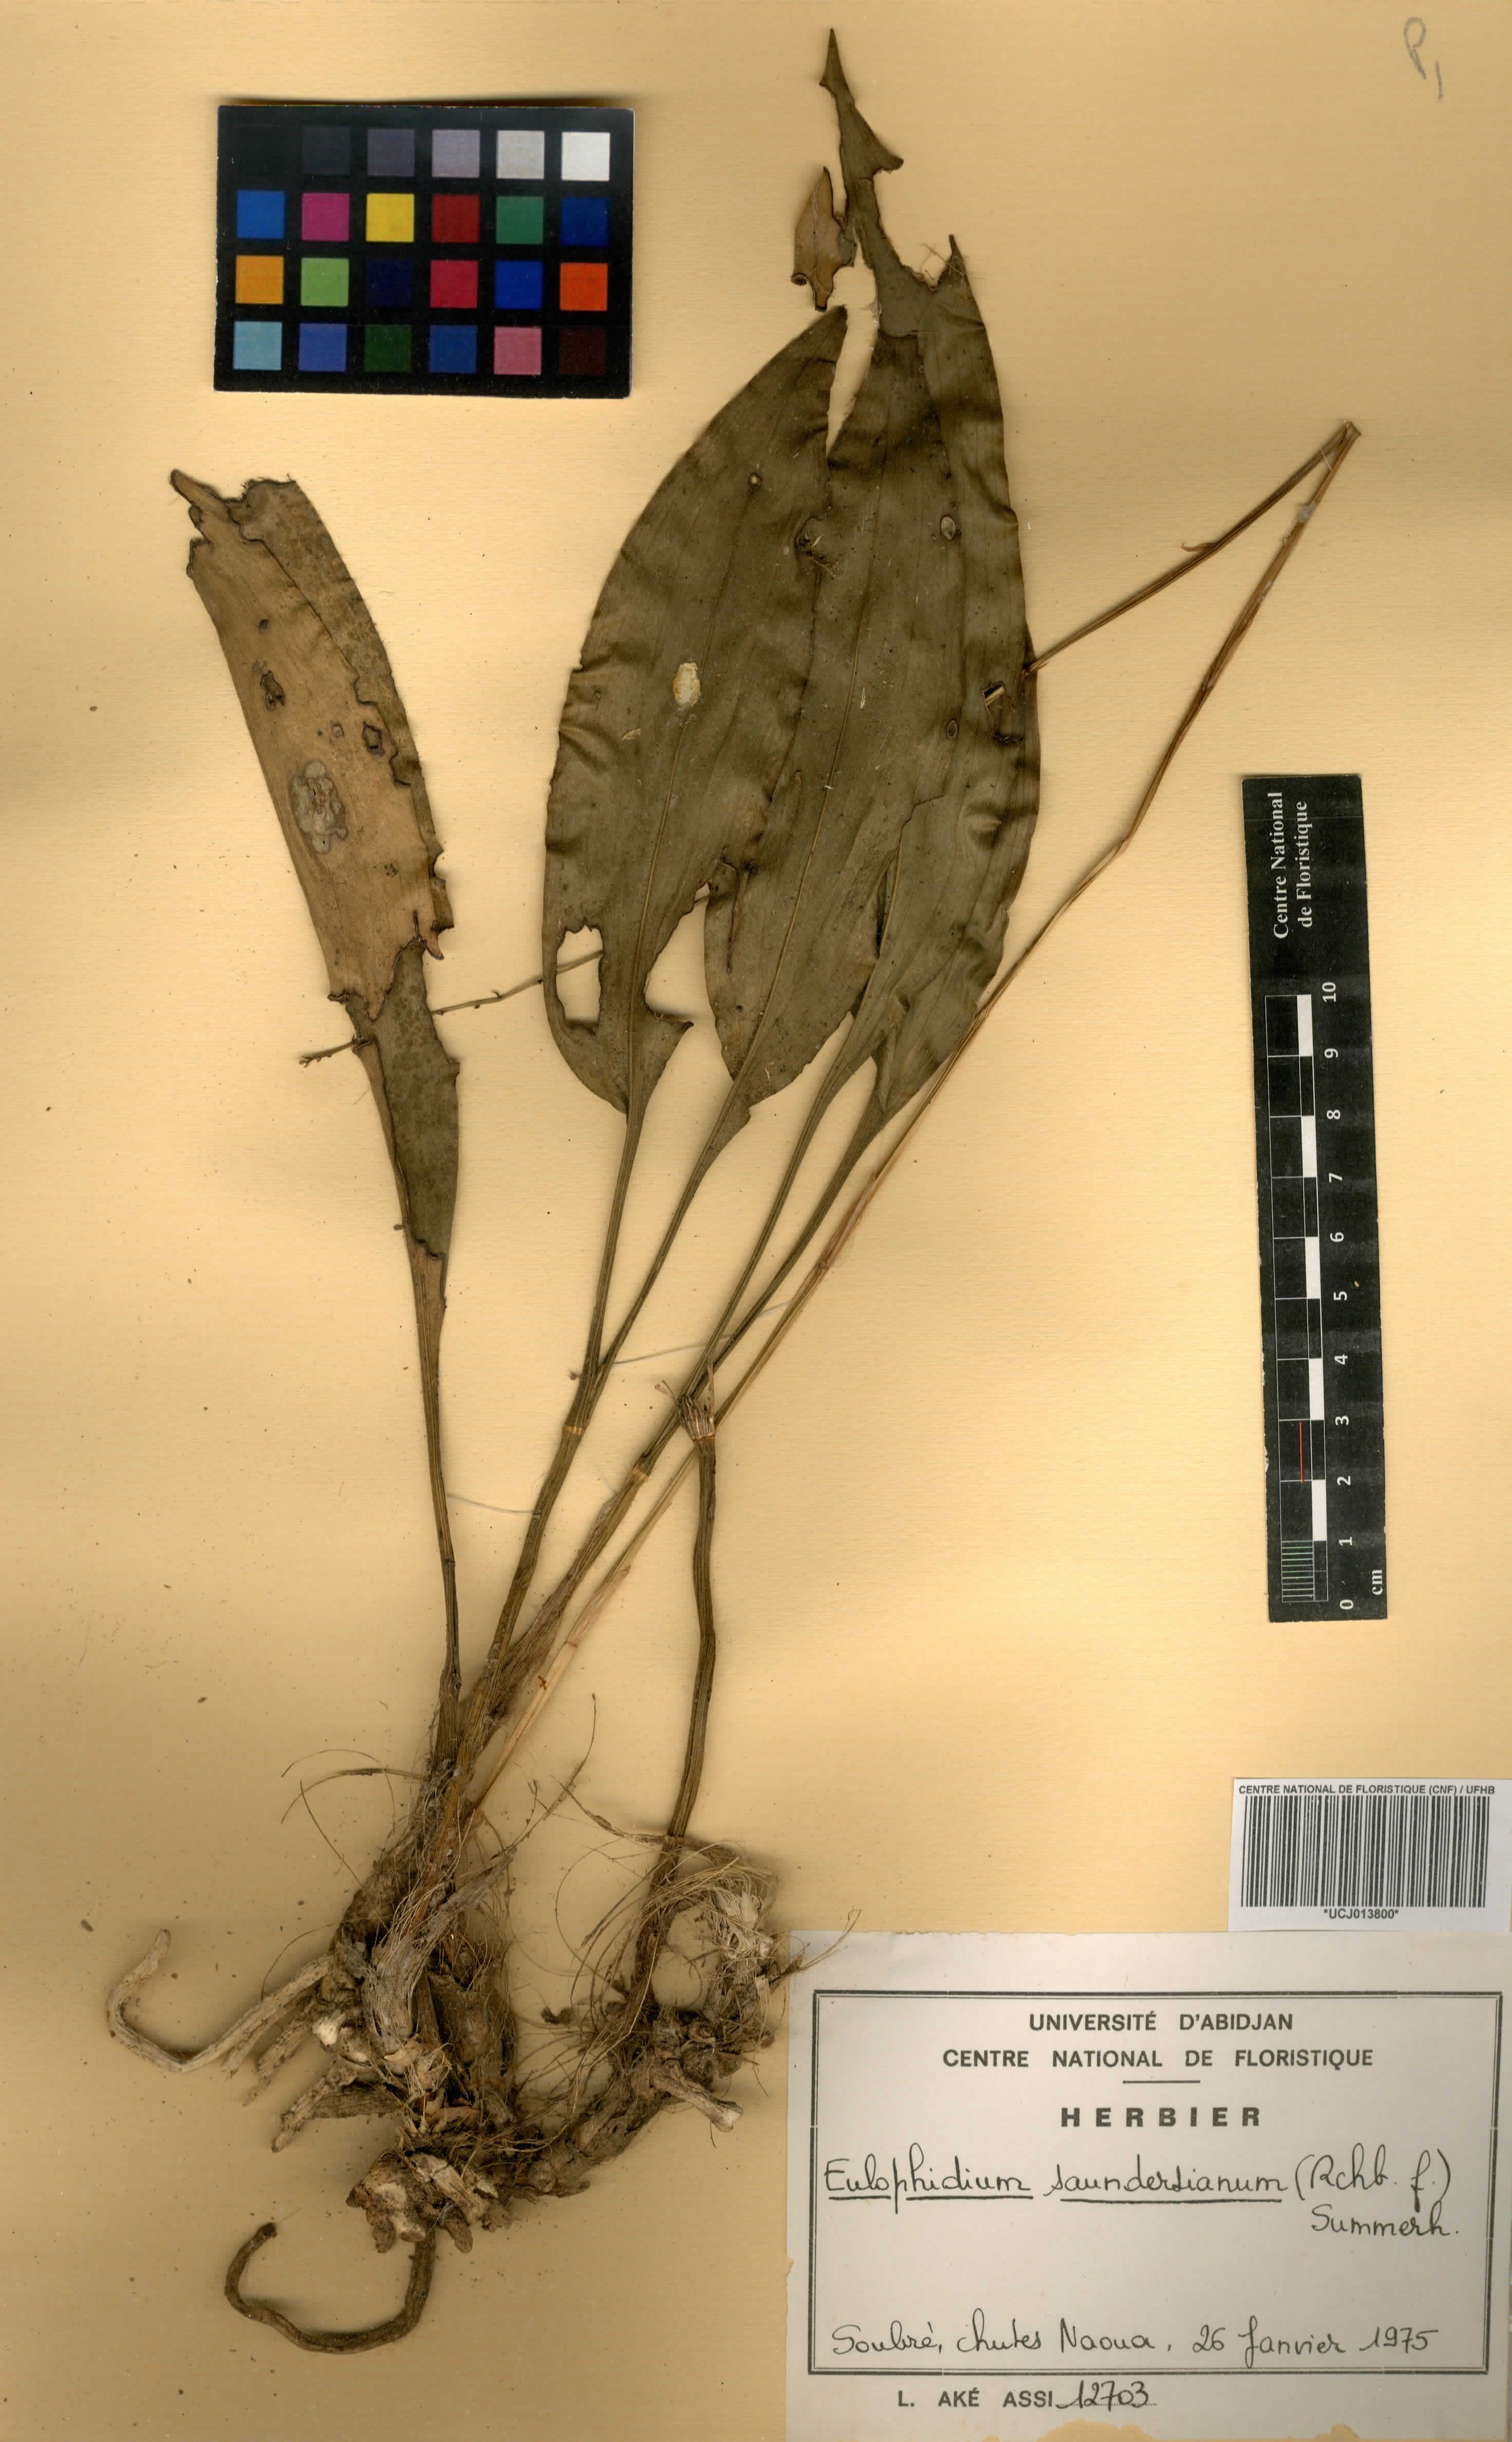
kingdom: Plantae
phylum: Tracheophyta
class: Liliopsida
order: Asparagales
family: Orchidaceae
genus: Eulophia
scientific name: Eulophia saundersiana
